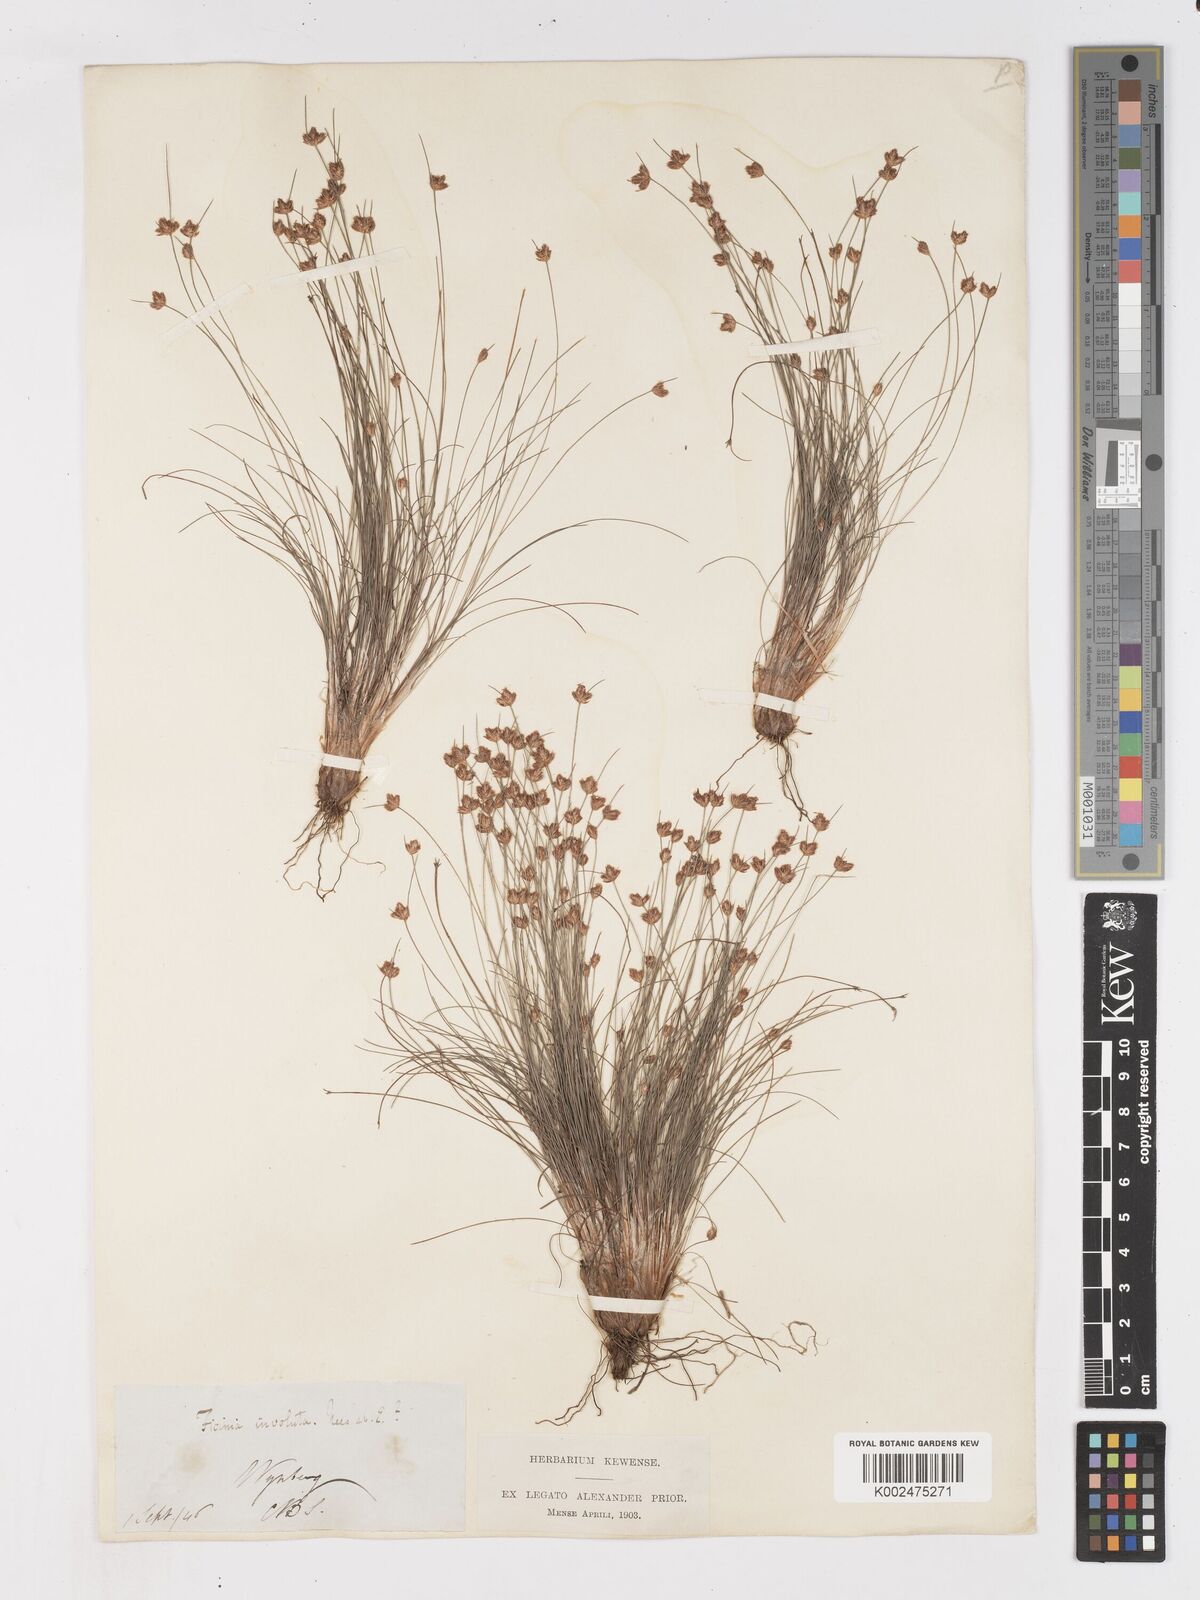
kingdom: Plantae
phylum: Tracheophyta
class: Liliopsida
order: Poales
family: Cyperaceae
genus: Ficinia
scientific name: Ficinia involuta
